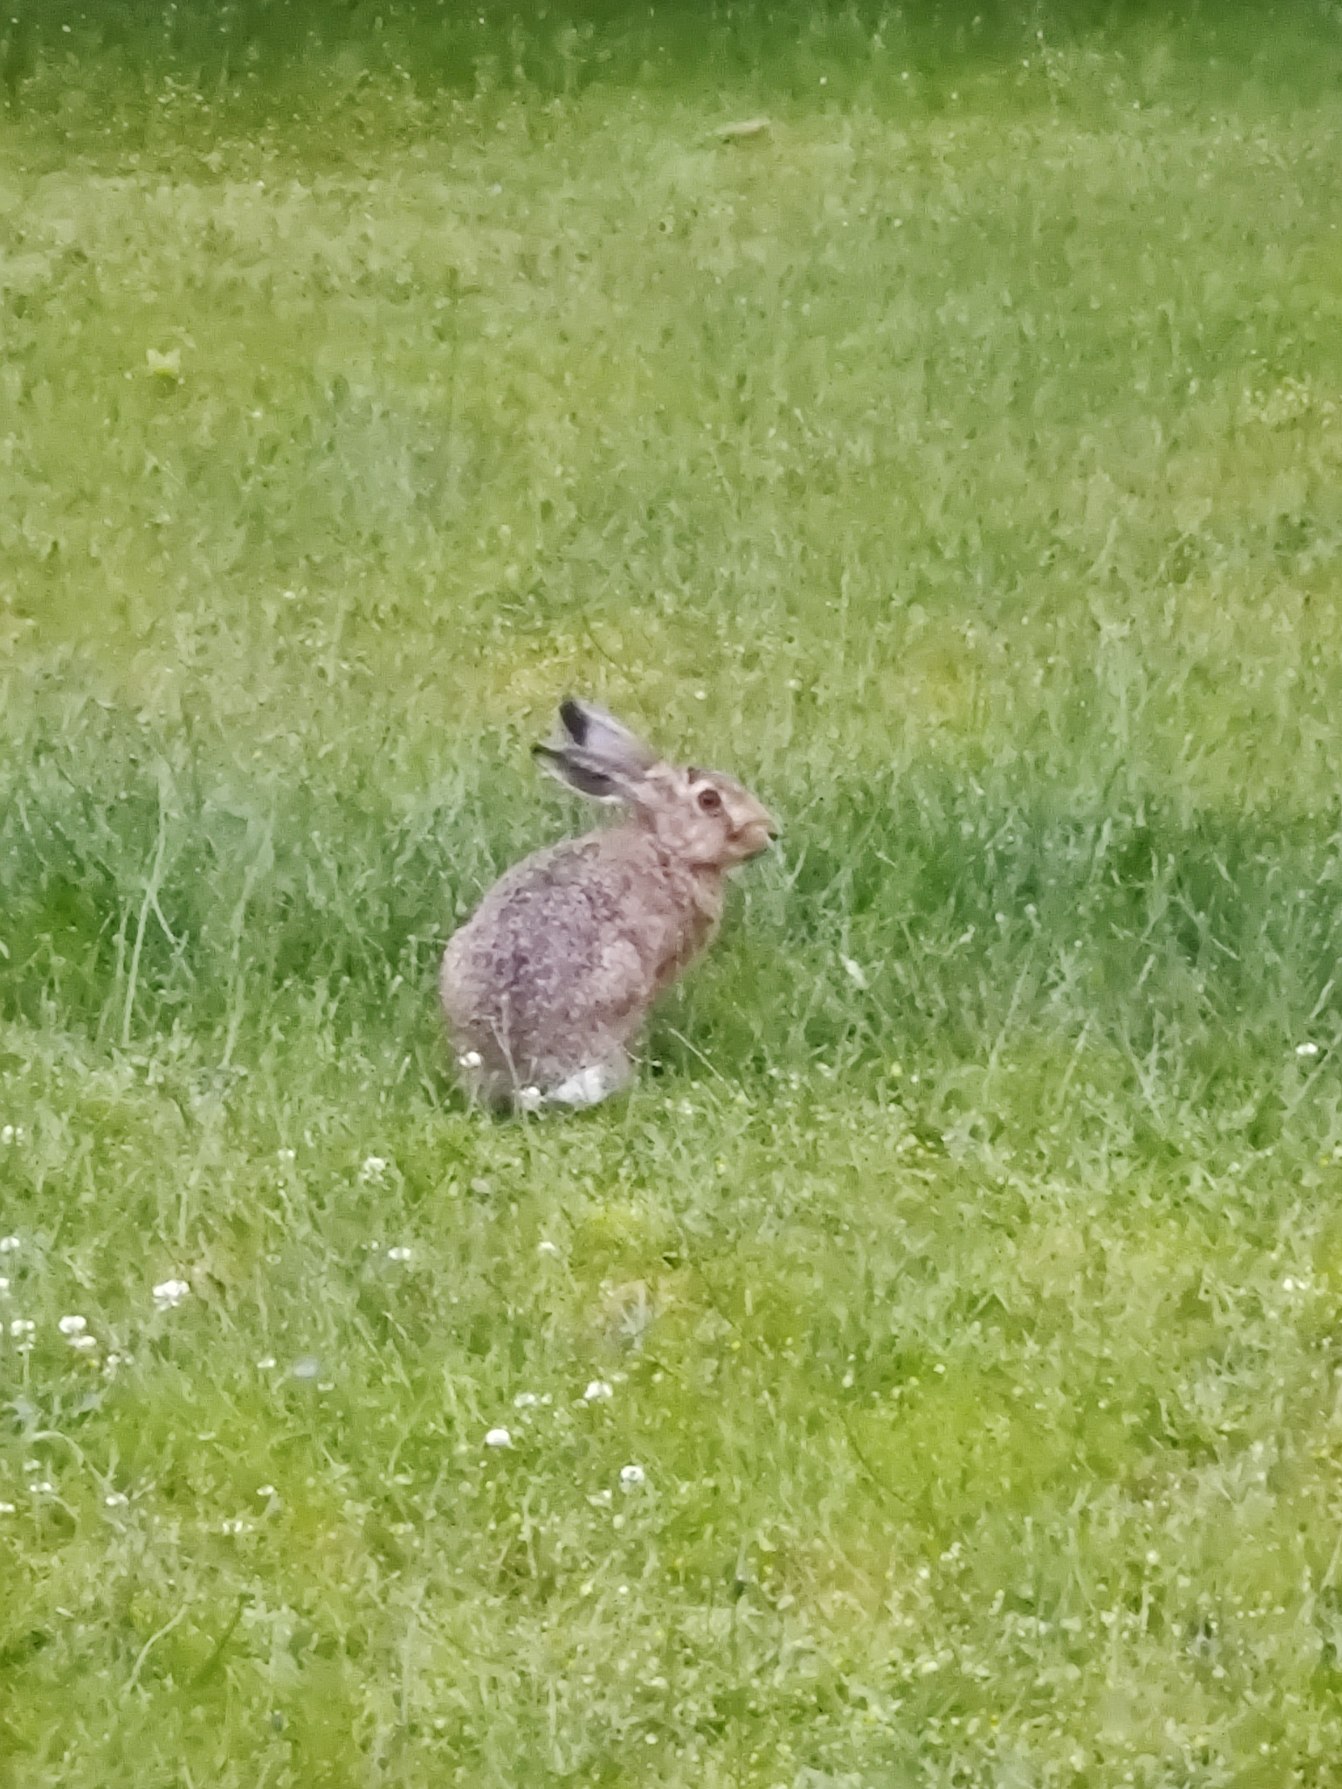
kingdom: Animalia
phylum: Chordata
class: Mammalia
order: Lagomorpha
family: Leporidae
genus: Lepus
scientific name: Lepus europaeus
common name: Hare
